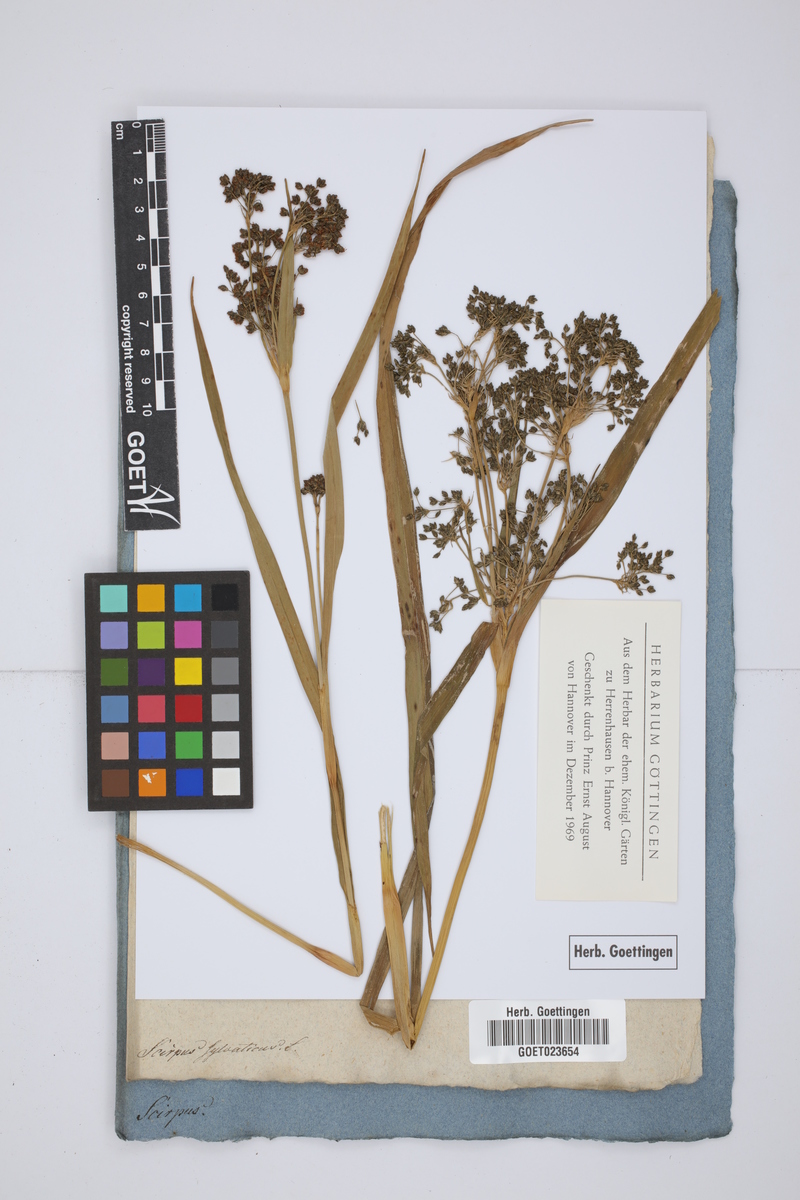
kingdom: Plantae
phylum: Tracheophyta
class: Liliopsida
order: Poales
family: Cyperaceae
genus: Scirpus
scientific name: Scirpus sylvaticus
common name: Wood club-rush
